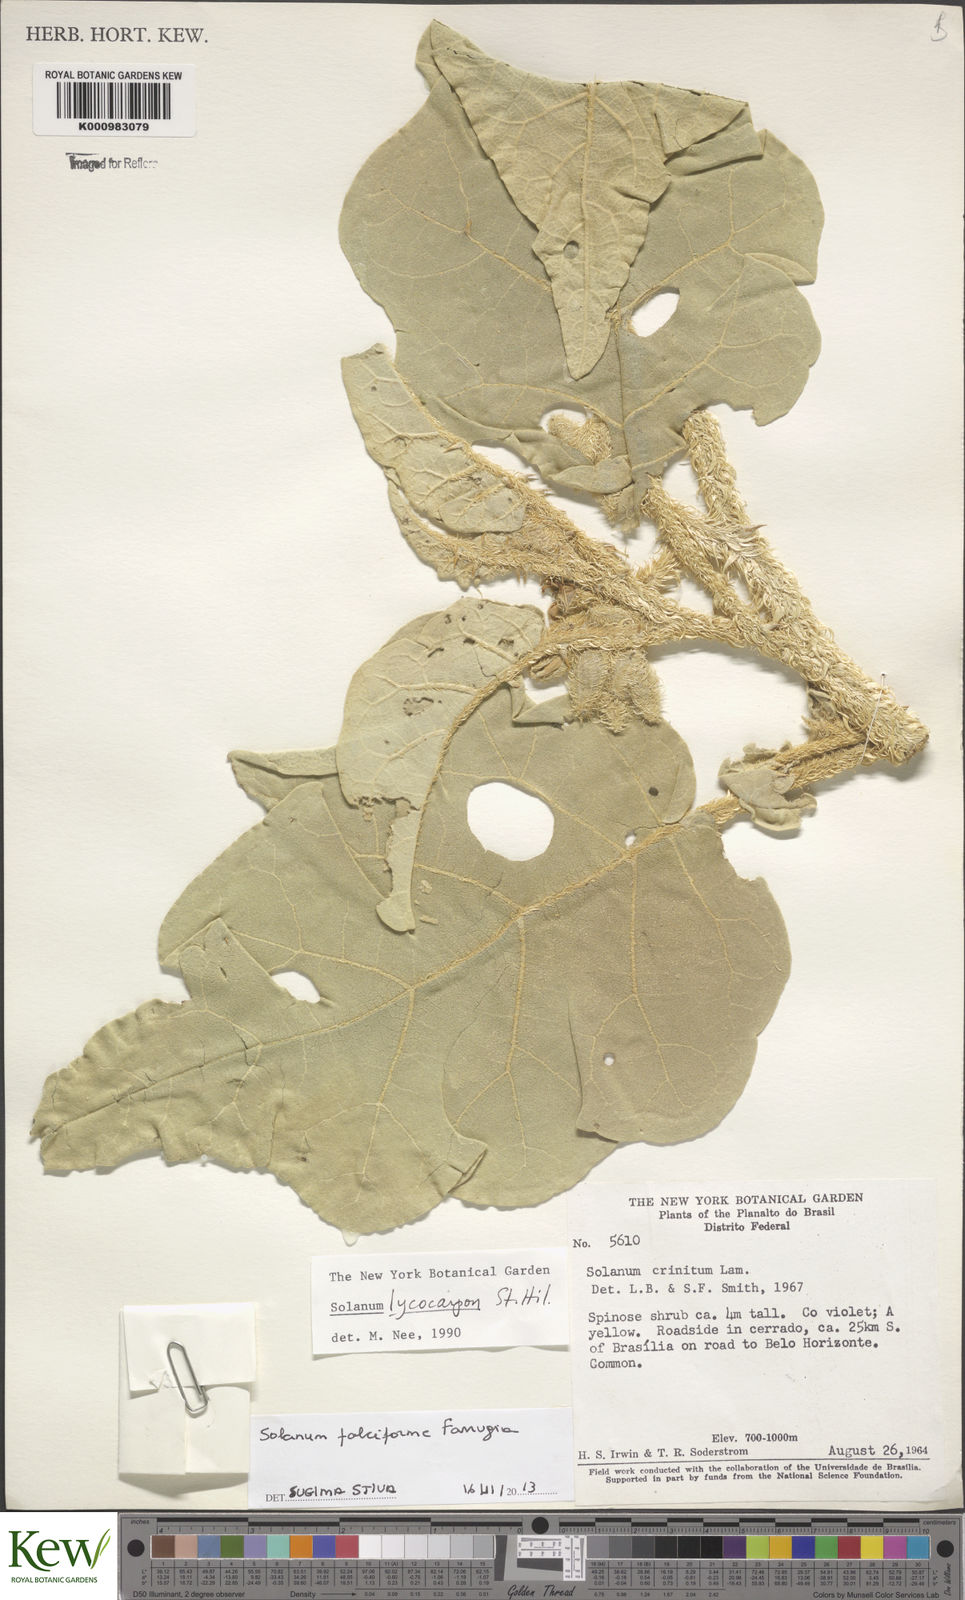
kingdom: Plantae
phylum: Tracheophyta
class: Magnoliopsida
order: Solanales
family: Solanaceae
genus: Solanum
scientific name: Solanum
